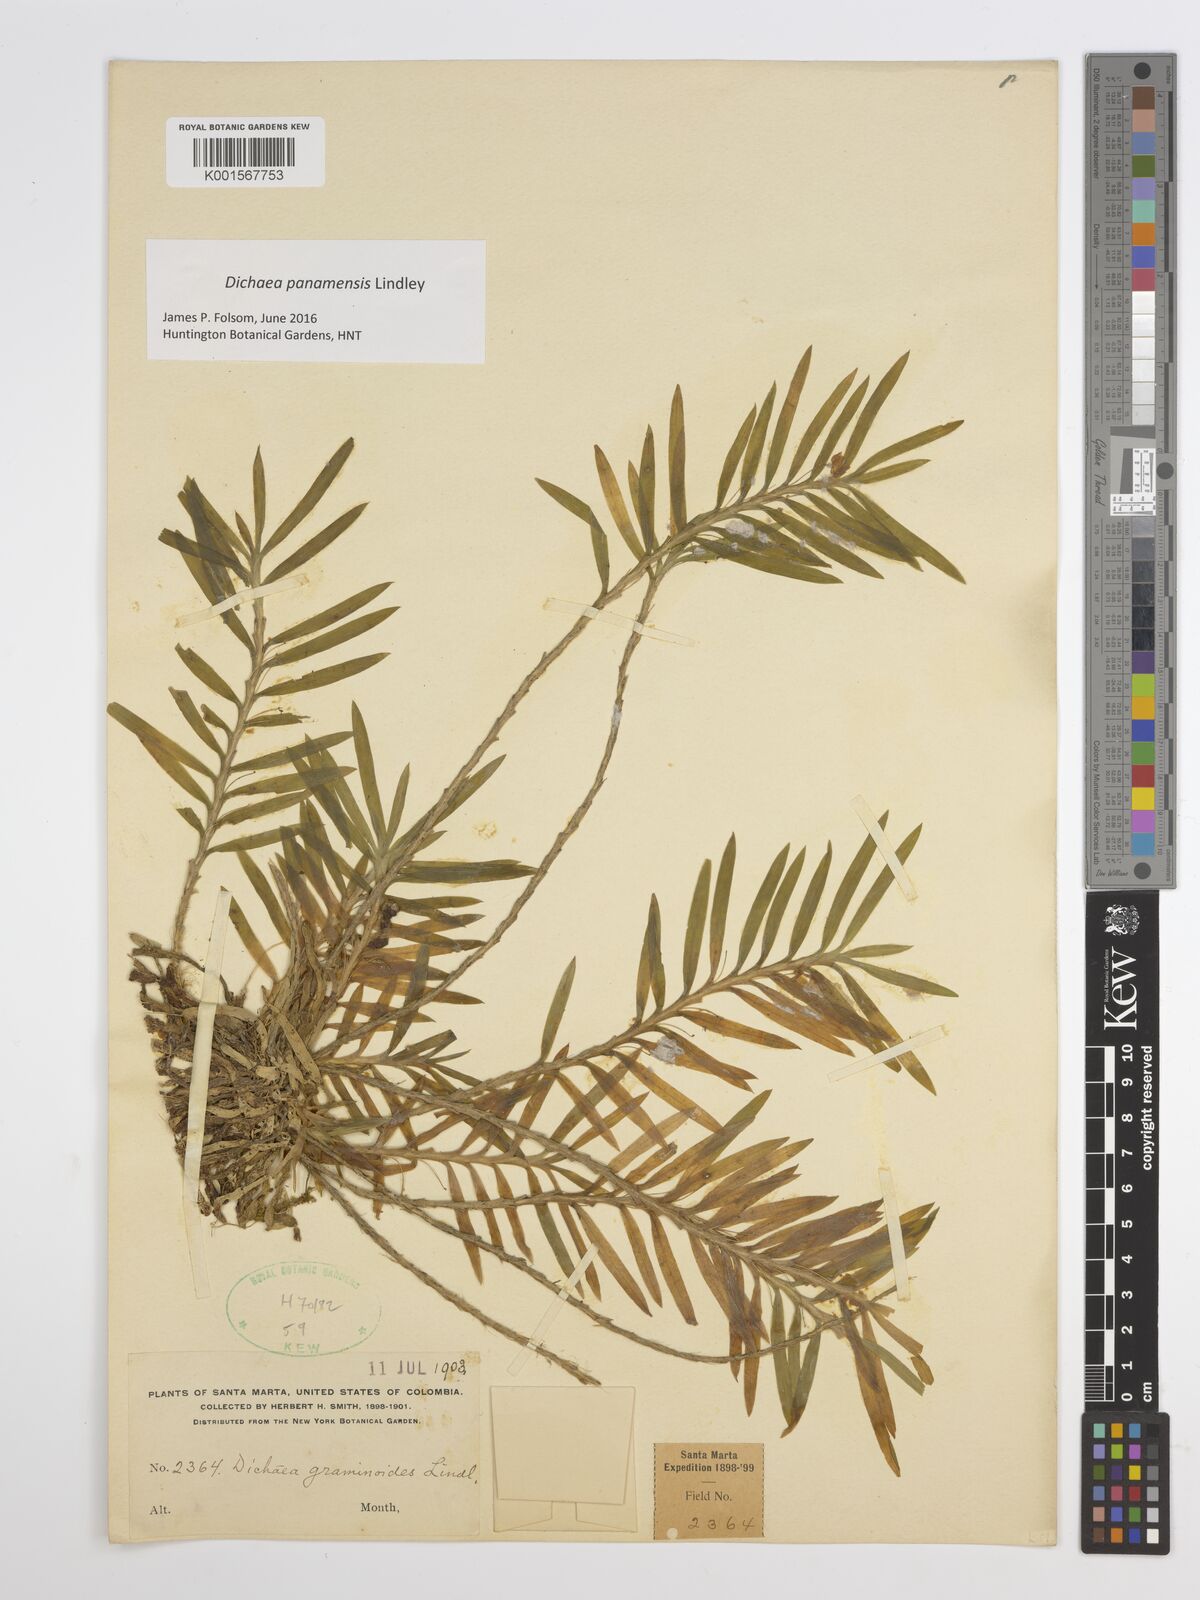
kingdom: Plantae
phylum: Tracheophyta
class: Liliopsida
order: Asparagales
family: Orchidaceae
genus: Dichaea
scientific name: Dichaea panamensis
